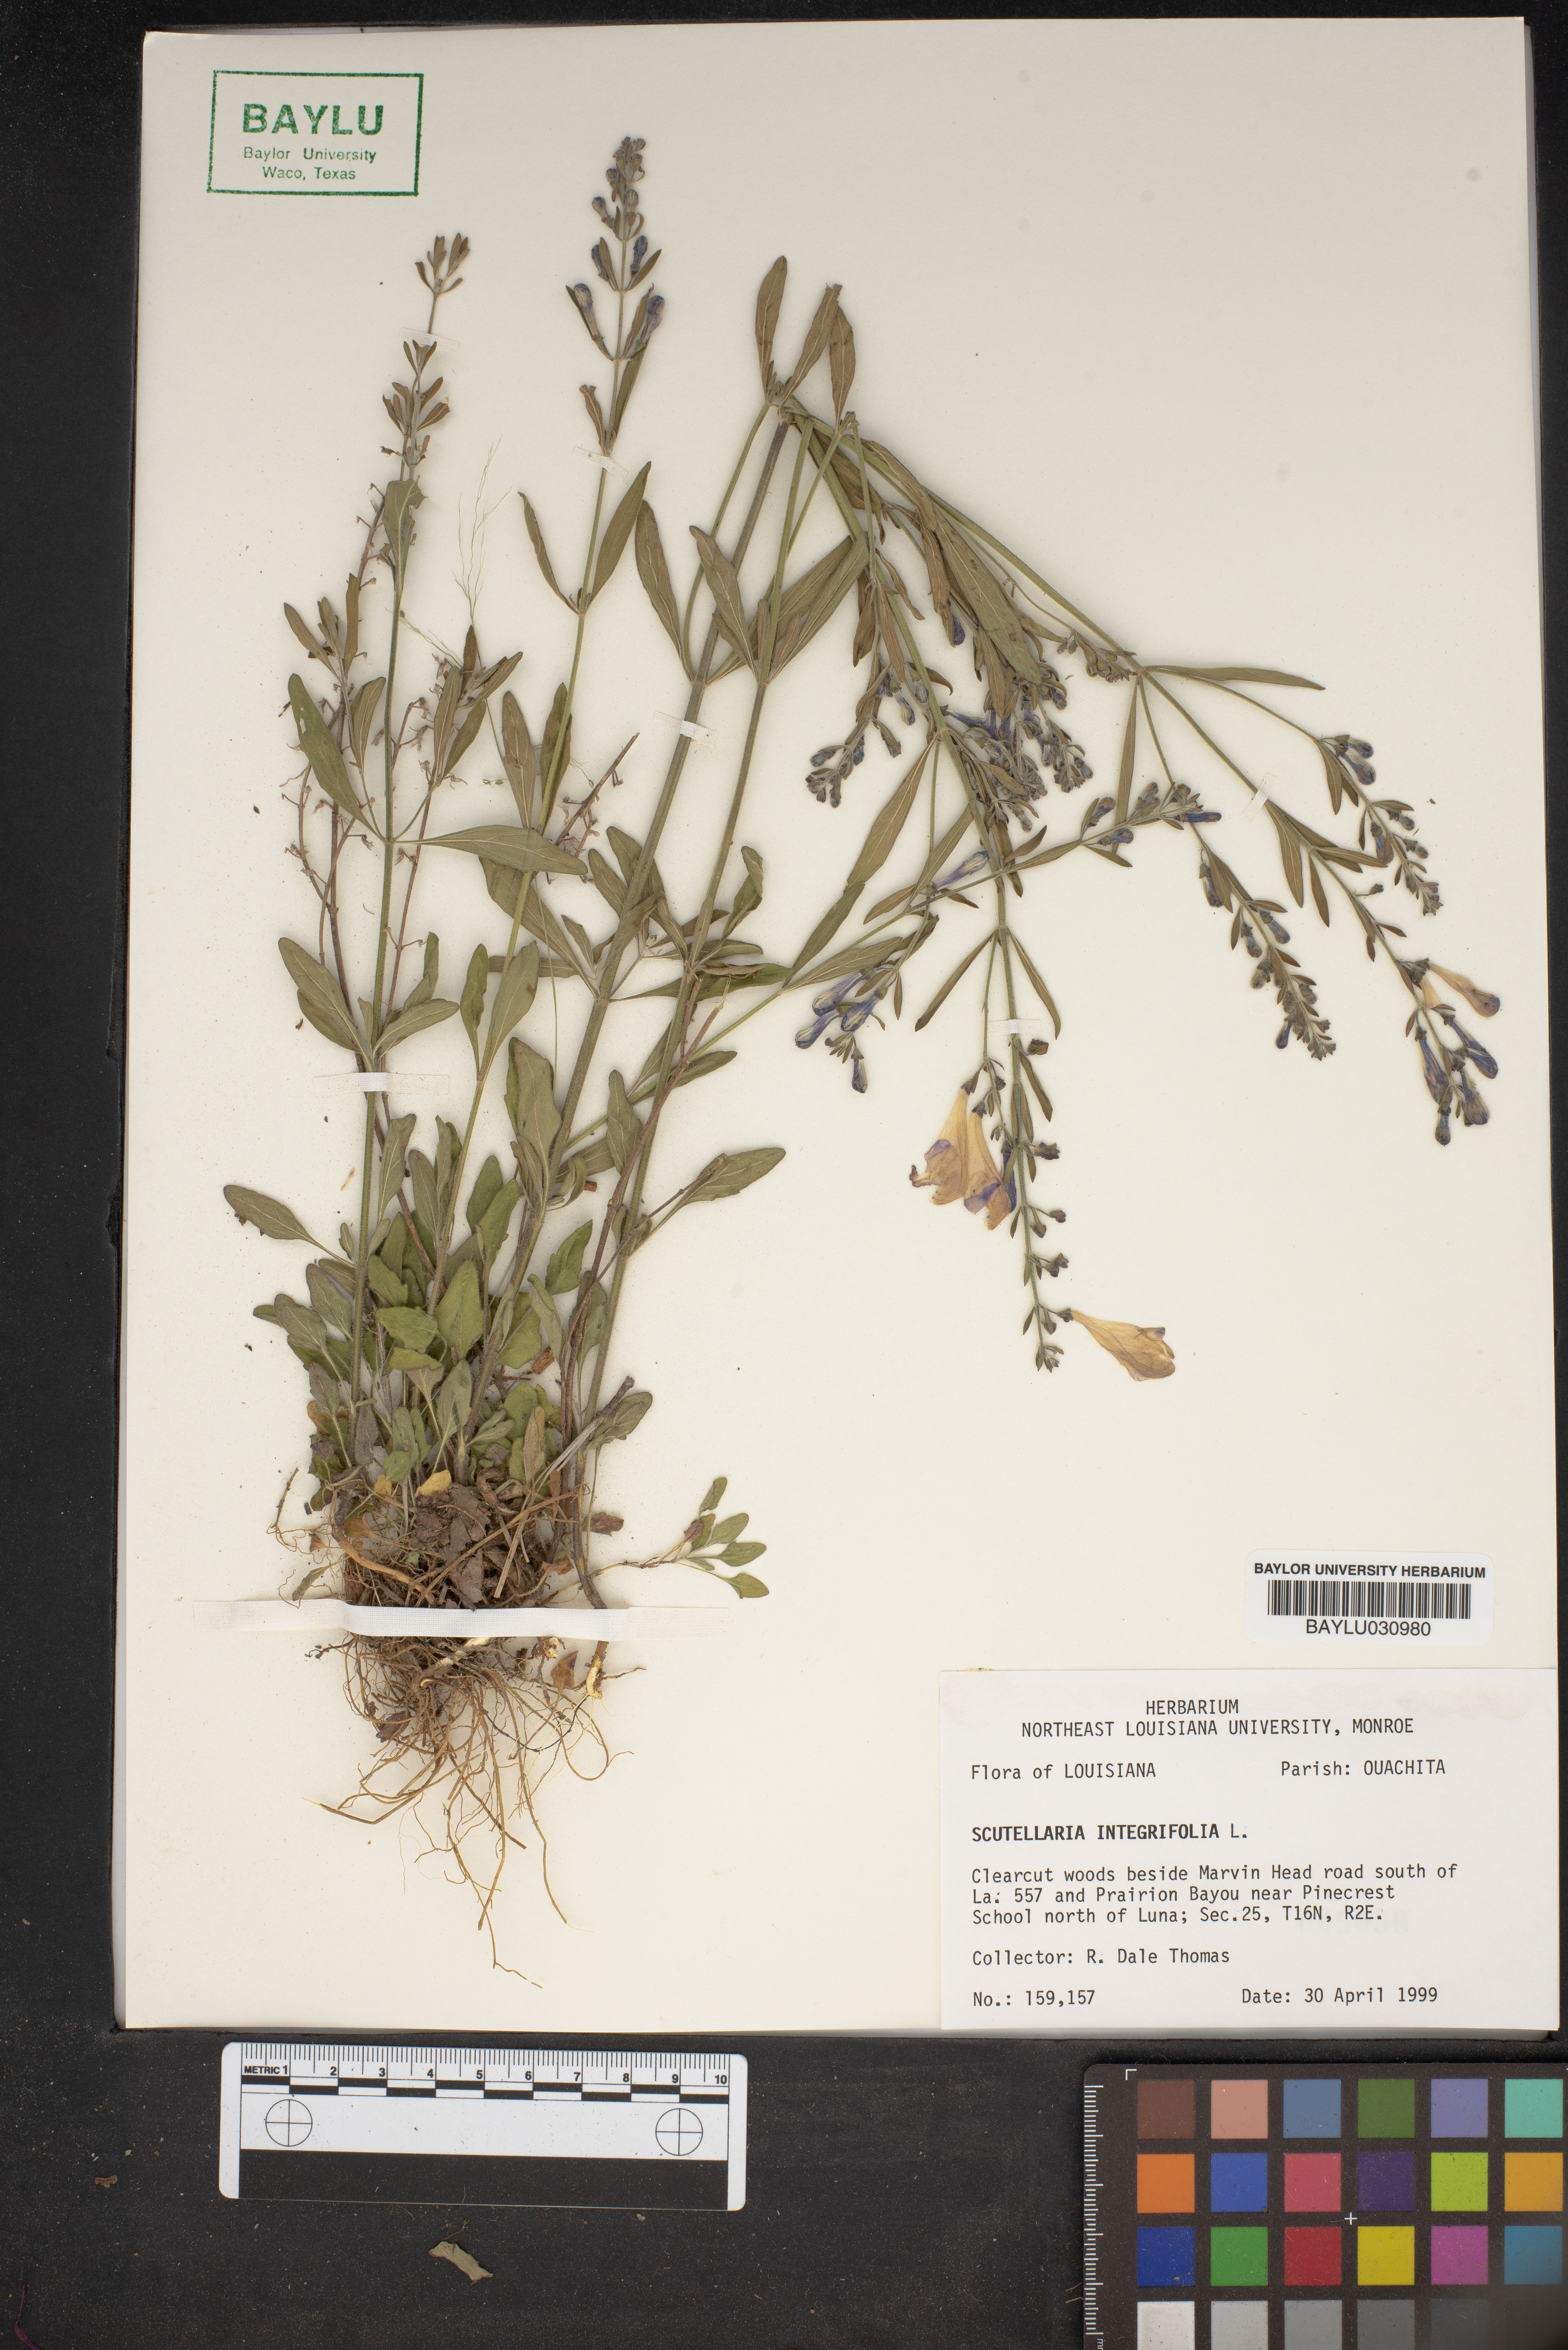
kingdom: Plantae
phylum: Tracheophyta
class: Magnoliopsida
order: Lamiales
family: Lamiaceae
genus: Scutellaria
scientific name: Scutellaria integrifolia
